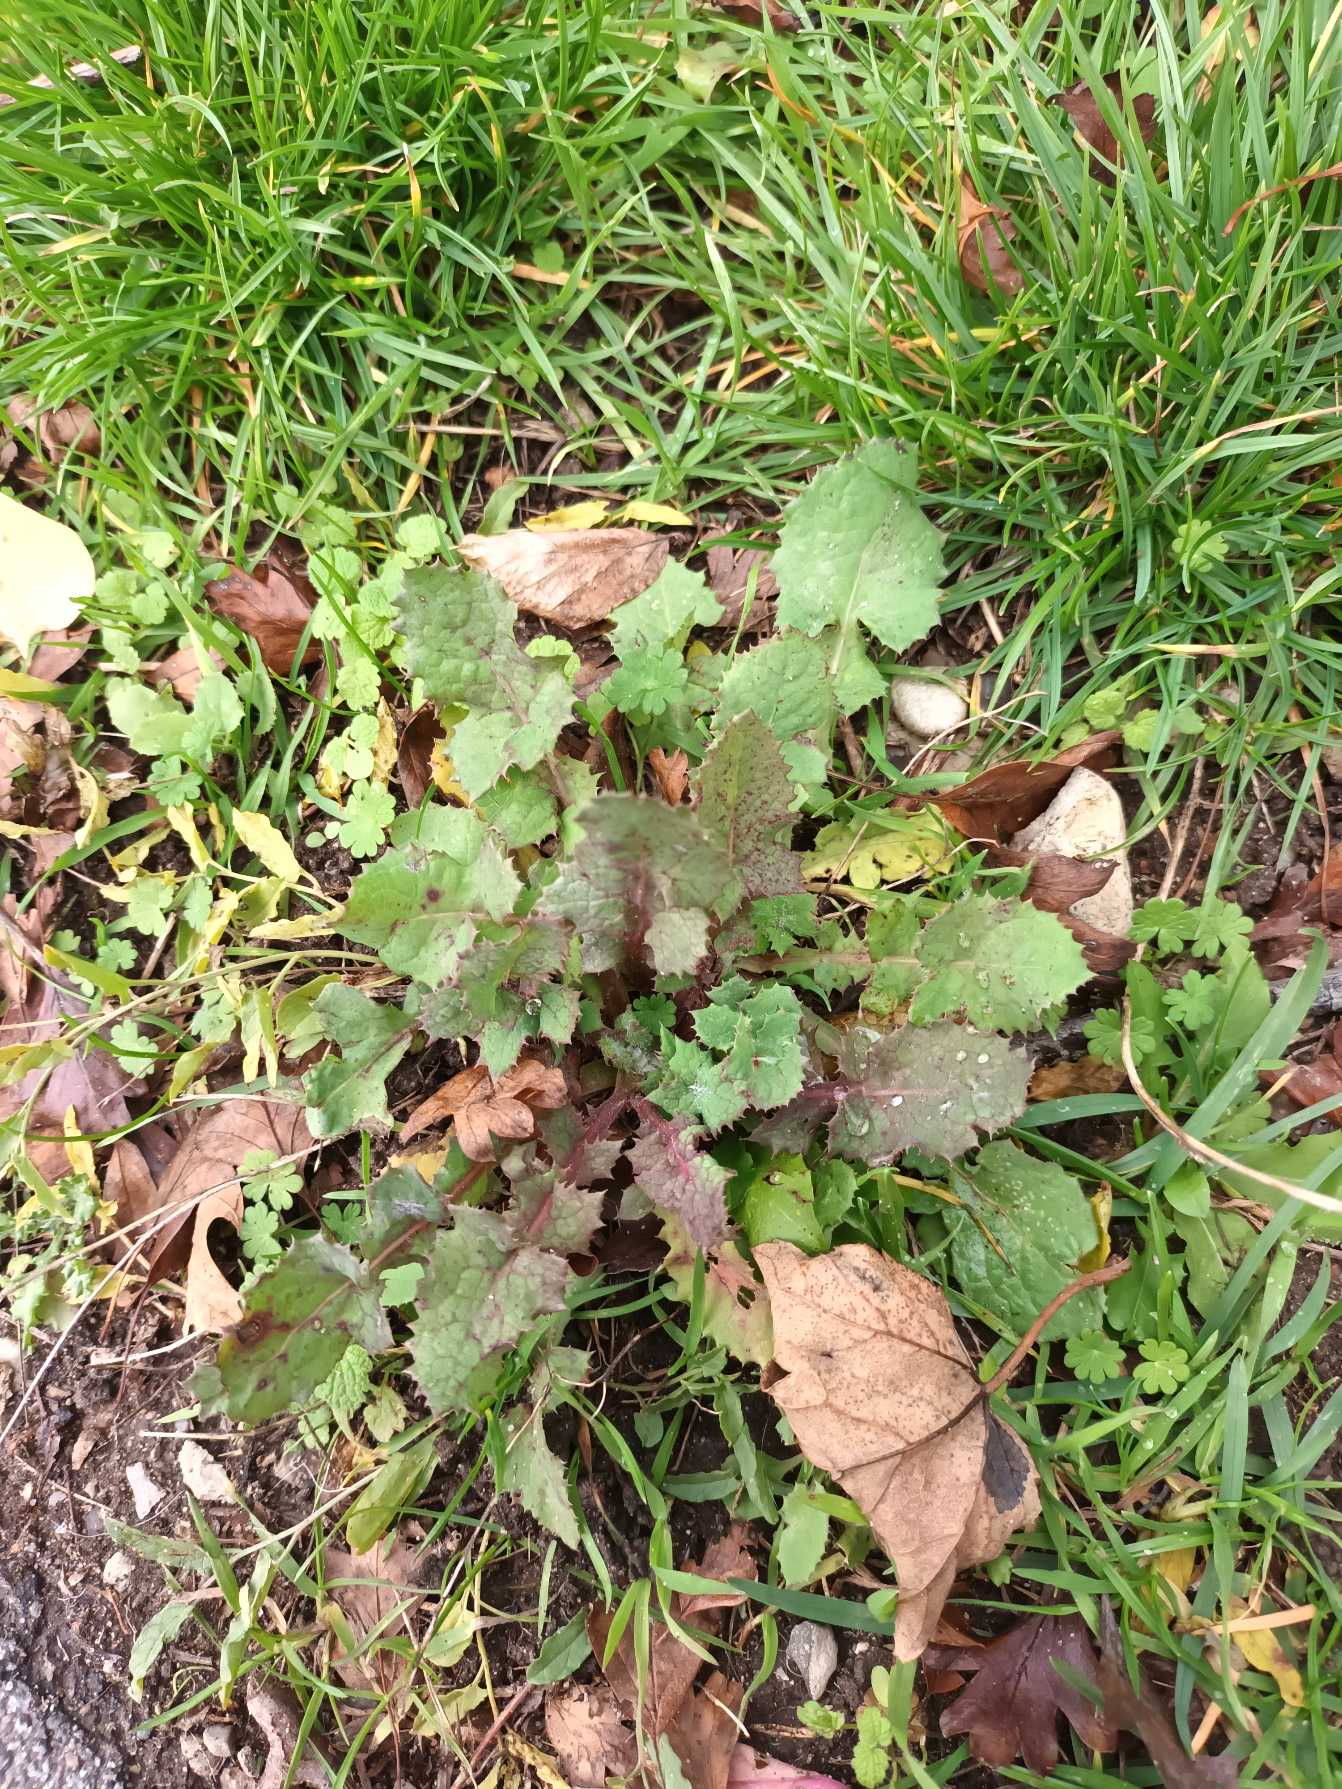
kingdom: Plantae
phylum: Tracheophyta
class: Magnoliopsida
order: Asterales
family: Asteraceae
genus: Sonchus
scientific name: Sonchus oleraceus
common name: Almindelig svinemælk
